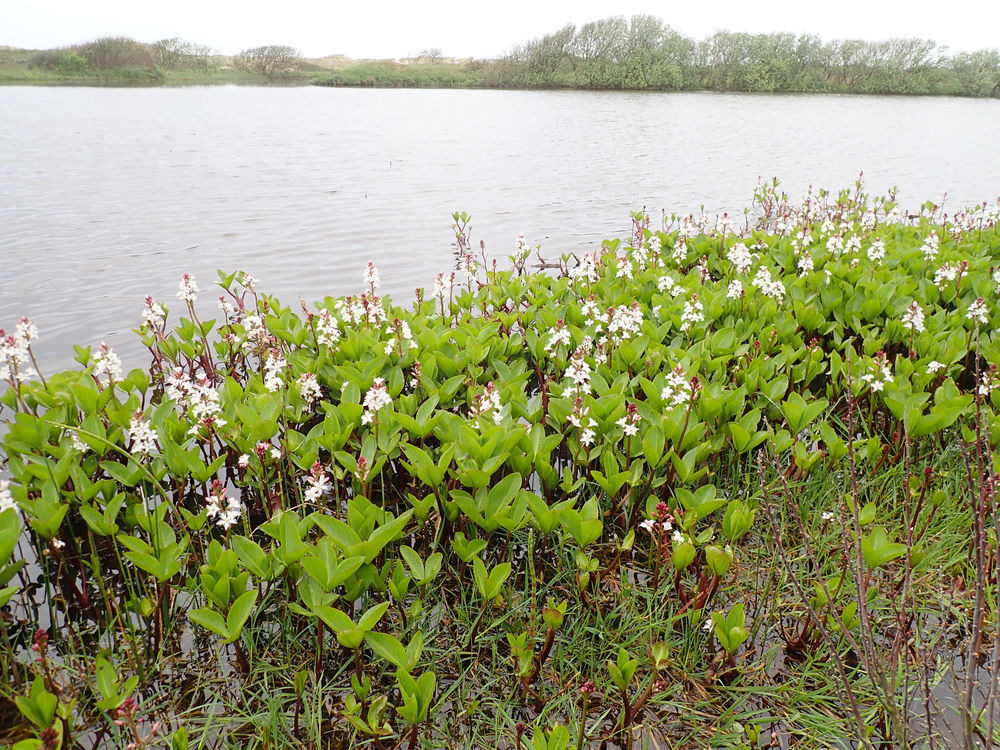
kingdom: Plantae
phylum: Tracheophyta
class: Magnoliopsida
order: Asterales
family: Menyanthaceae
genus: Menyanthes
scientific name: Menyanthes trifoliata
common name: Bukkeblad
